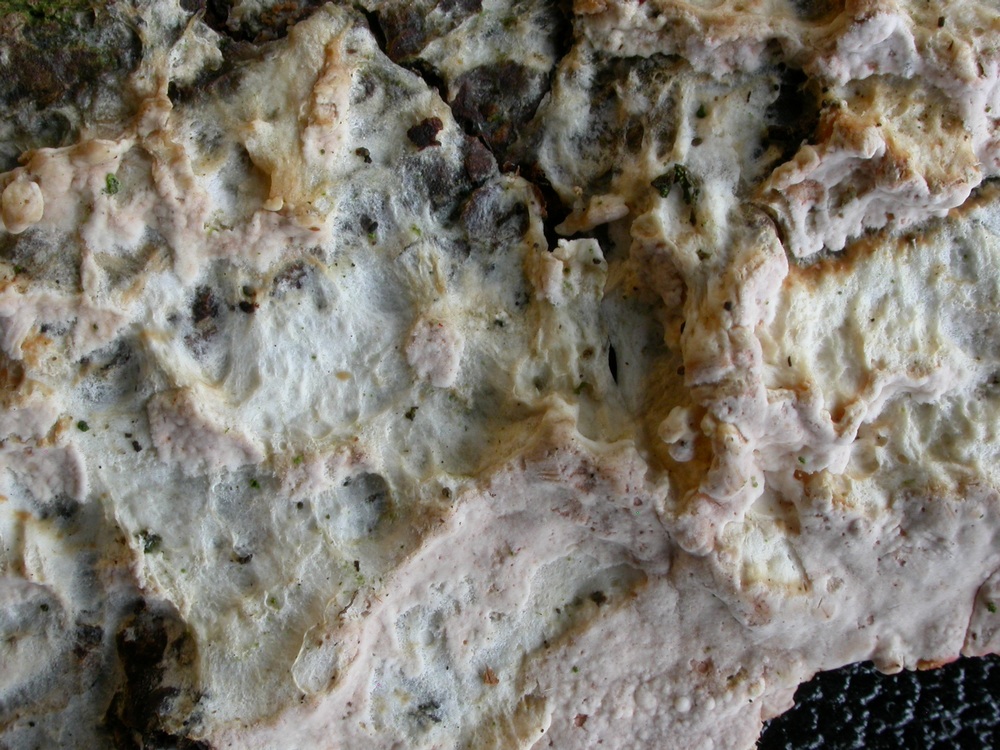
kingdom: Fungi
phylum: Basidiomycota
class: Agaricomycetes
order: Agaricales
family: Cyphellaceae
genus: Granulobasidium
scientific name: Granulobasidium vellereum
